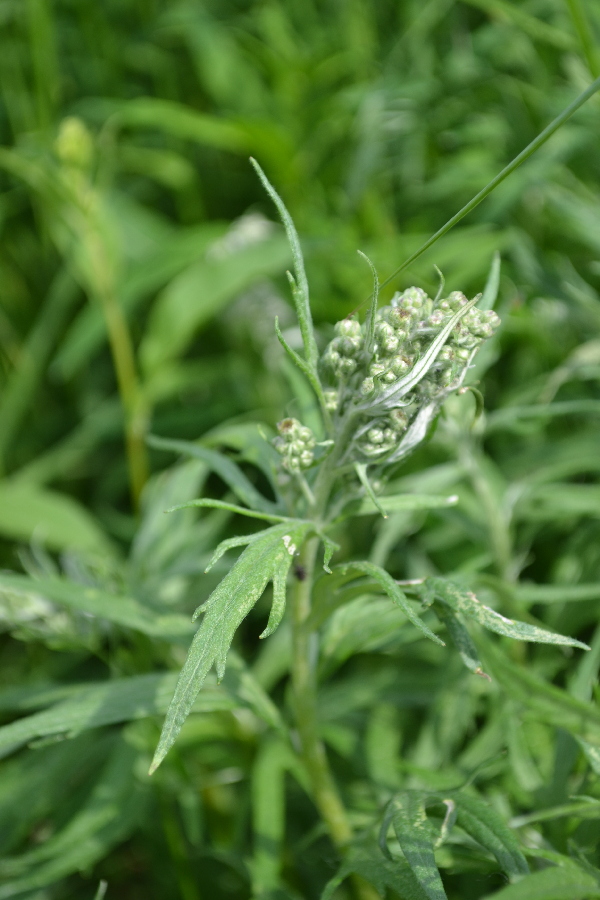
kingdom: Plantae
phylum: Tracheophyta
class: Magnoliopsida
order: Asterales
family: Asteraceae
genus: Artemisia
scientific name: Artemisia tilesii
